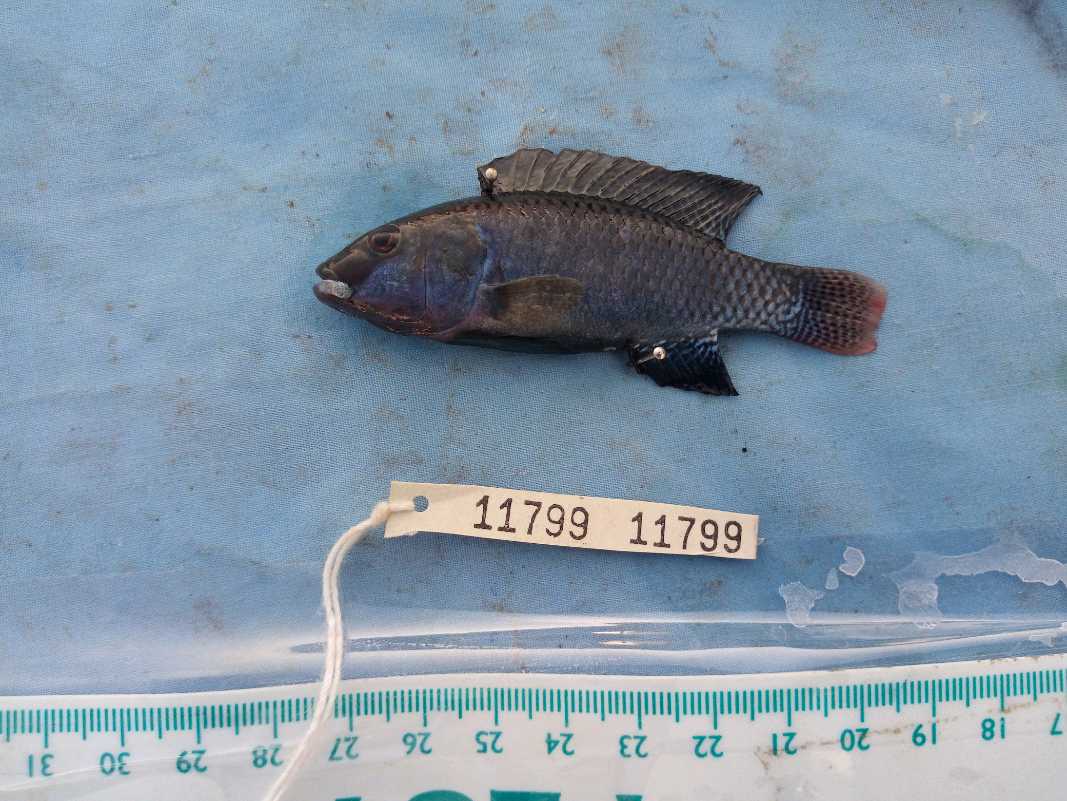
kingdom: Animalia
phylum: Chordata
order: Perciformes
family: Cichlidae
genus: Alcolapia
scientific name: Alcolapia grahami
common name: Lake magadi tilapia
